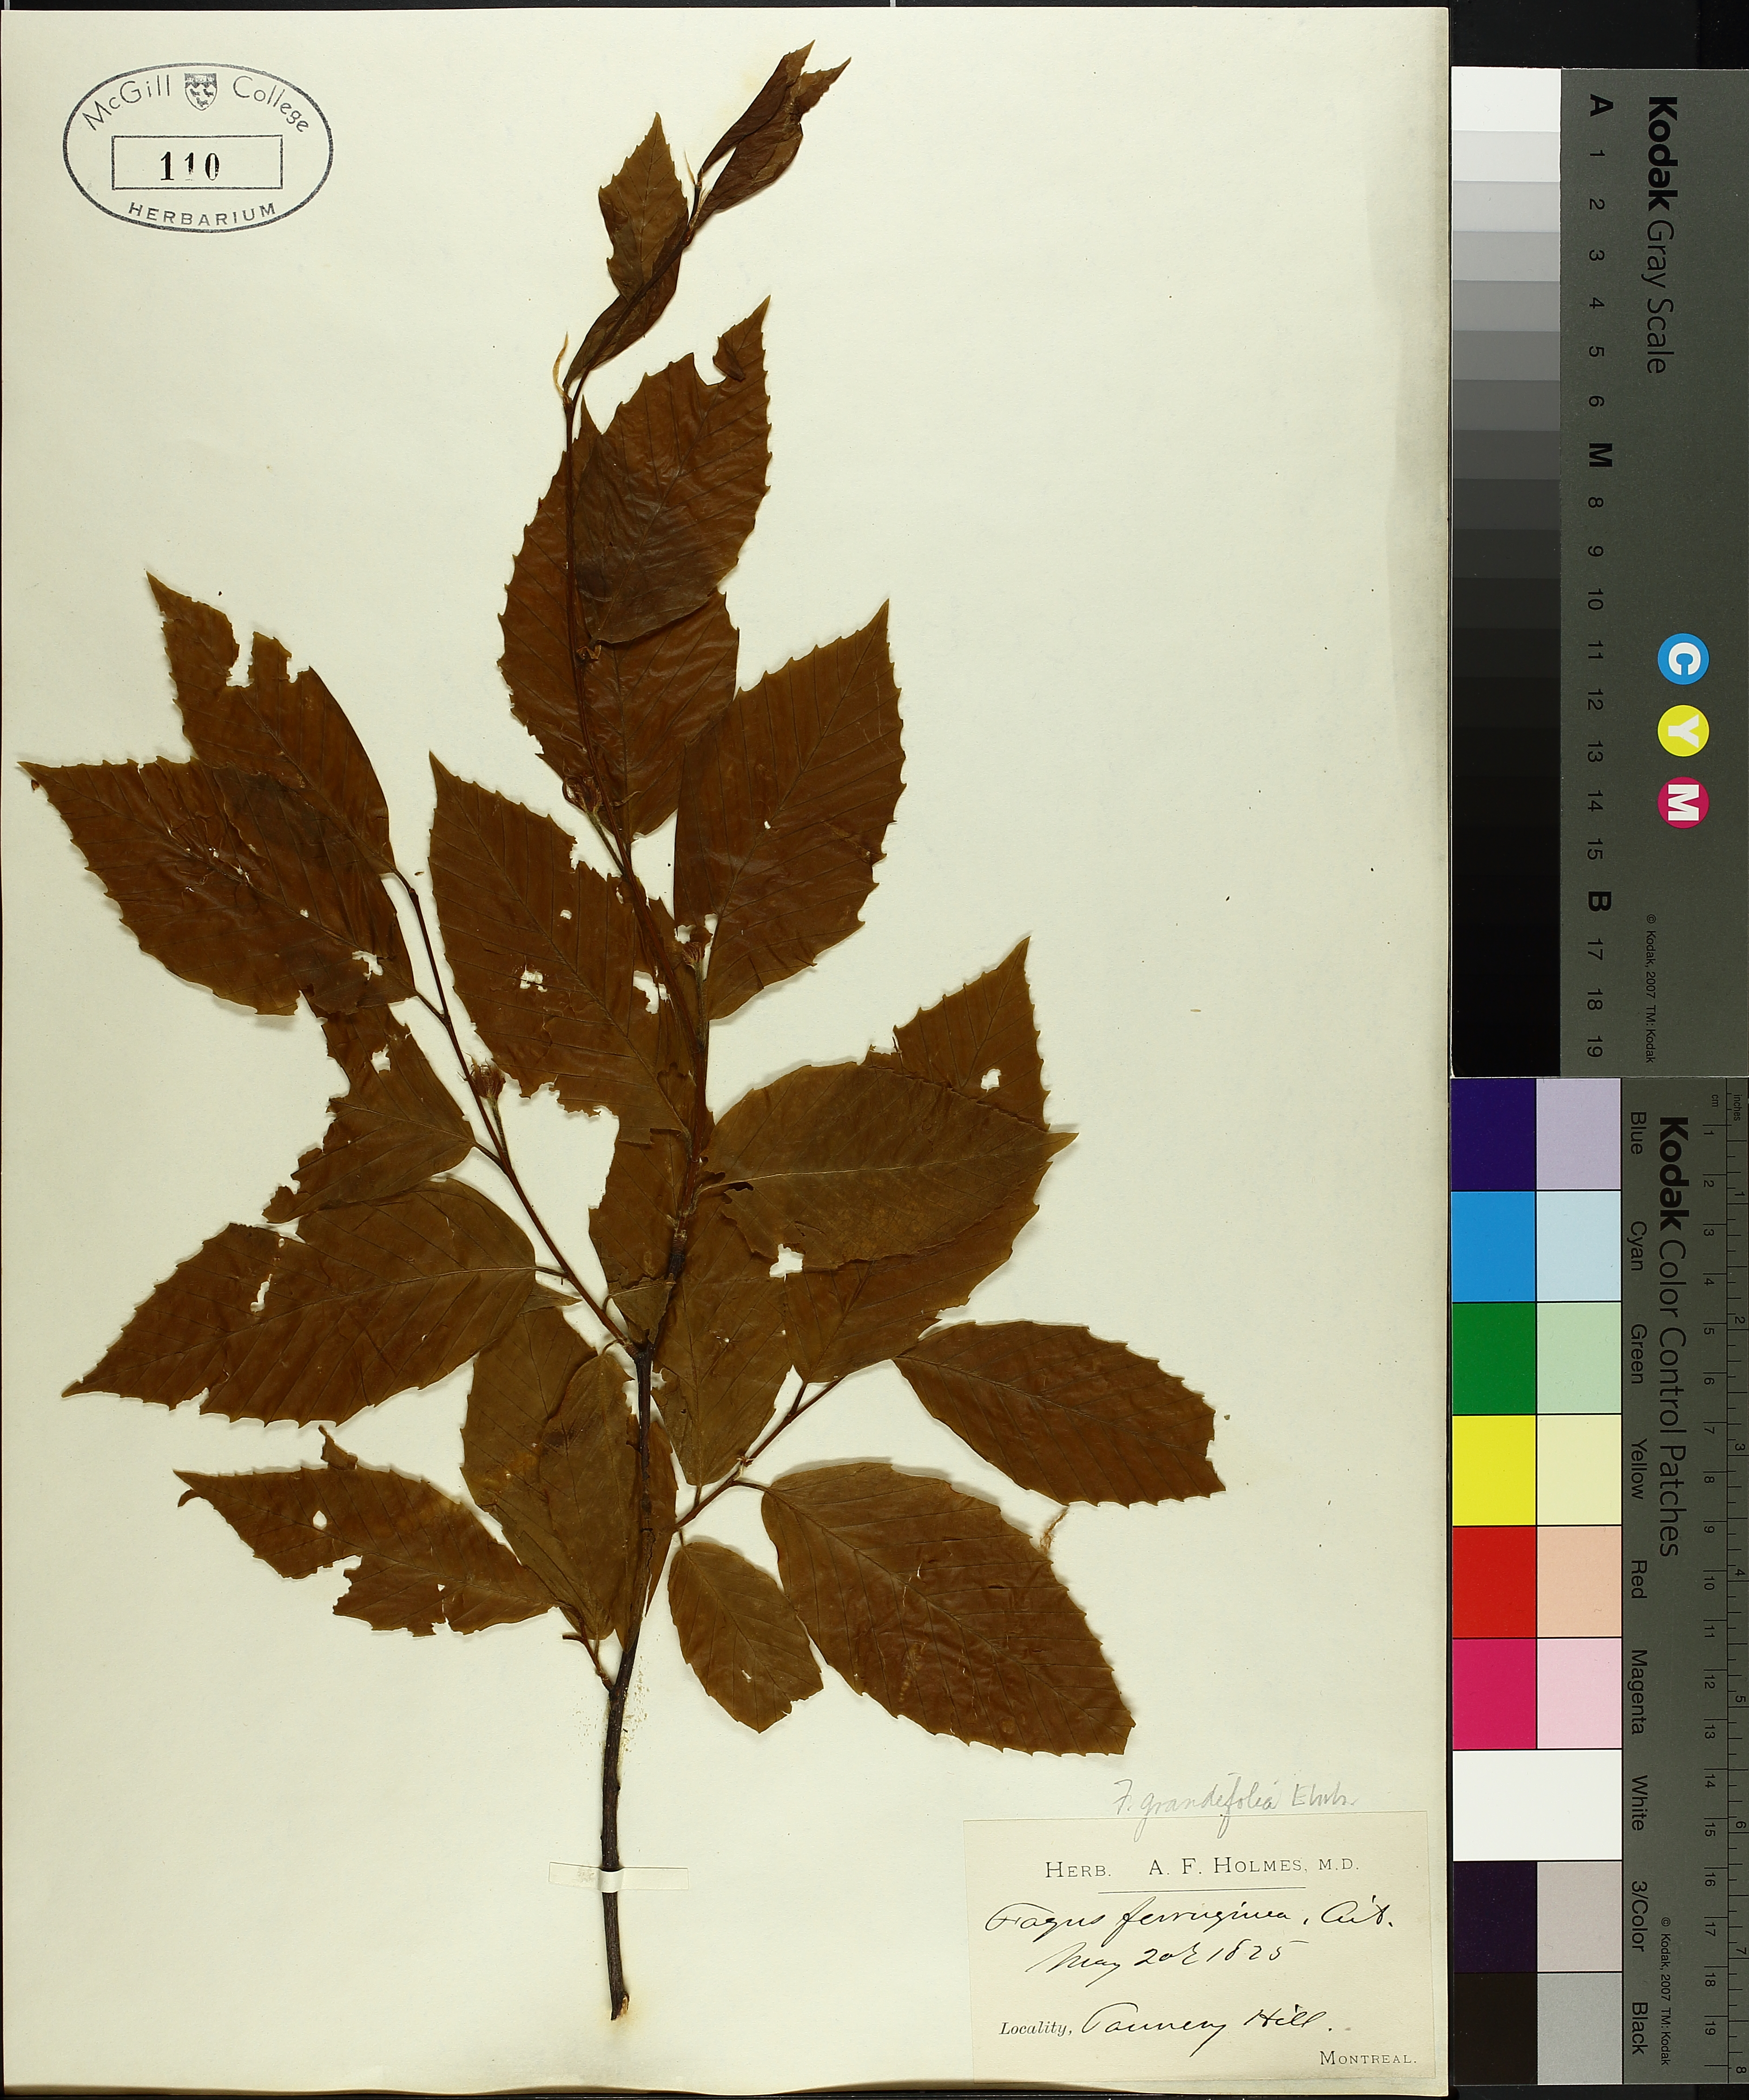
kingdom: Plantae
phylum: Tracheophyta
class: Magnoliopsida
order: Fagales
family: Fagaceae
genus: Fagus
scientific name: Fagus grandifolia
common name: American beech
